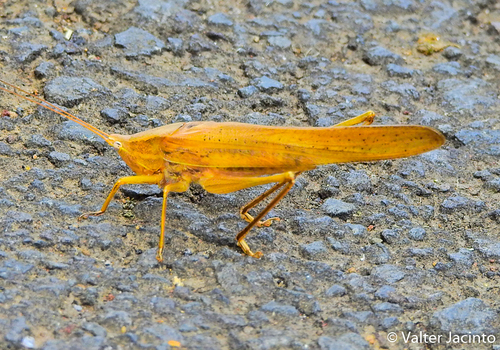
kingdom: Animalia
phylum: Arthropoda
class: Insecta
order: Orthoptera
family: Tettigoniidae
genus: Ruspolia
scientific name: Ruspolia nitidula
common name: Large conehead
